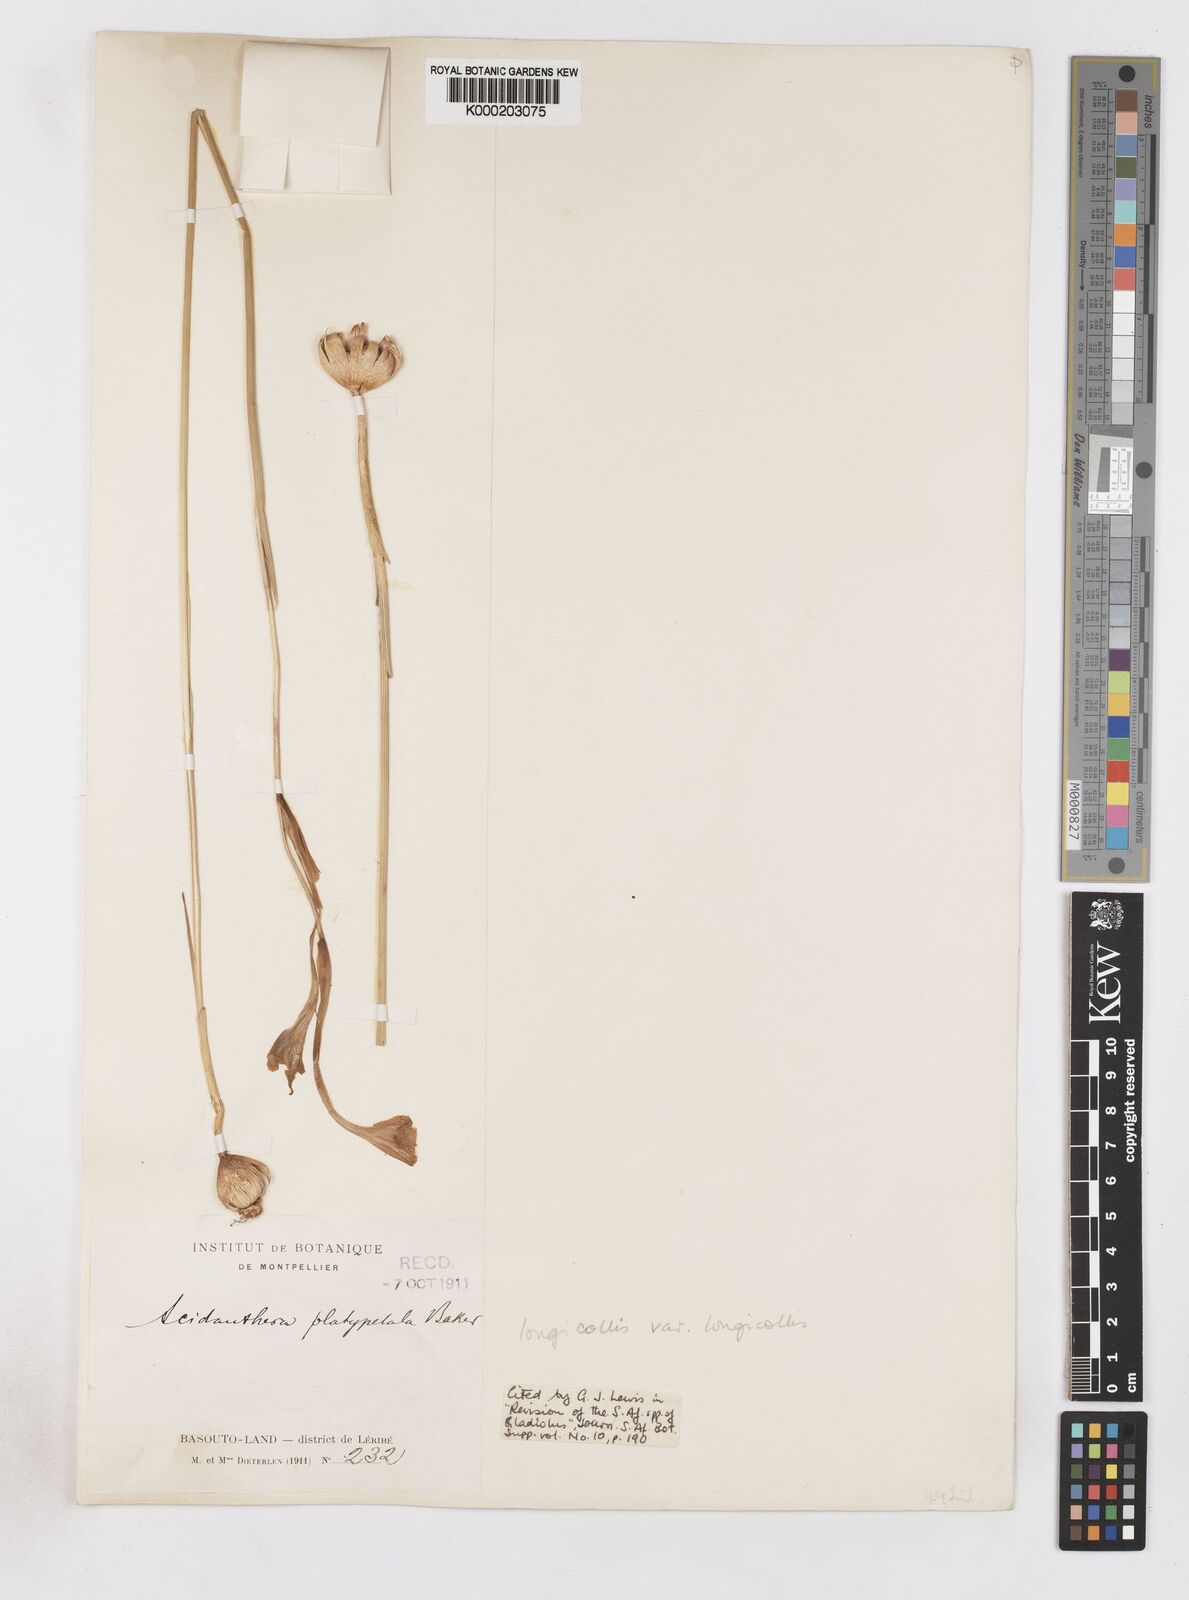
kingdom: Plantae
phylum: Tracheophyta
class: Liliopsida
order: Asparagales
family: Iridaceae
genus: Gladiolus
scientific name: Gladiolus longicollis
